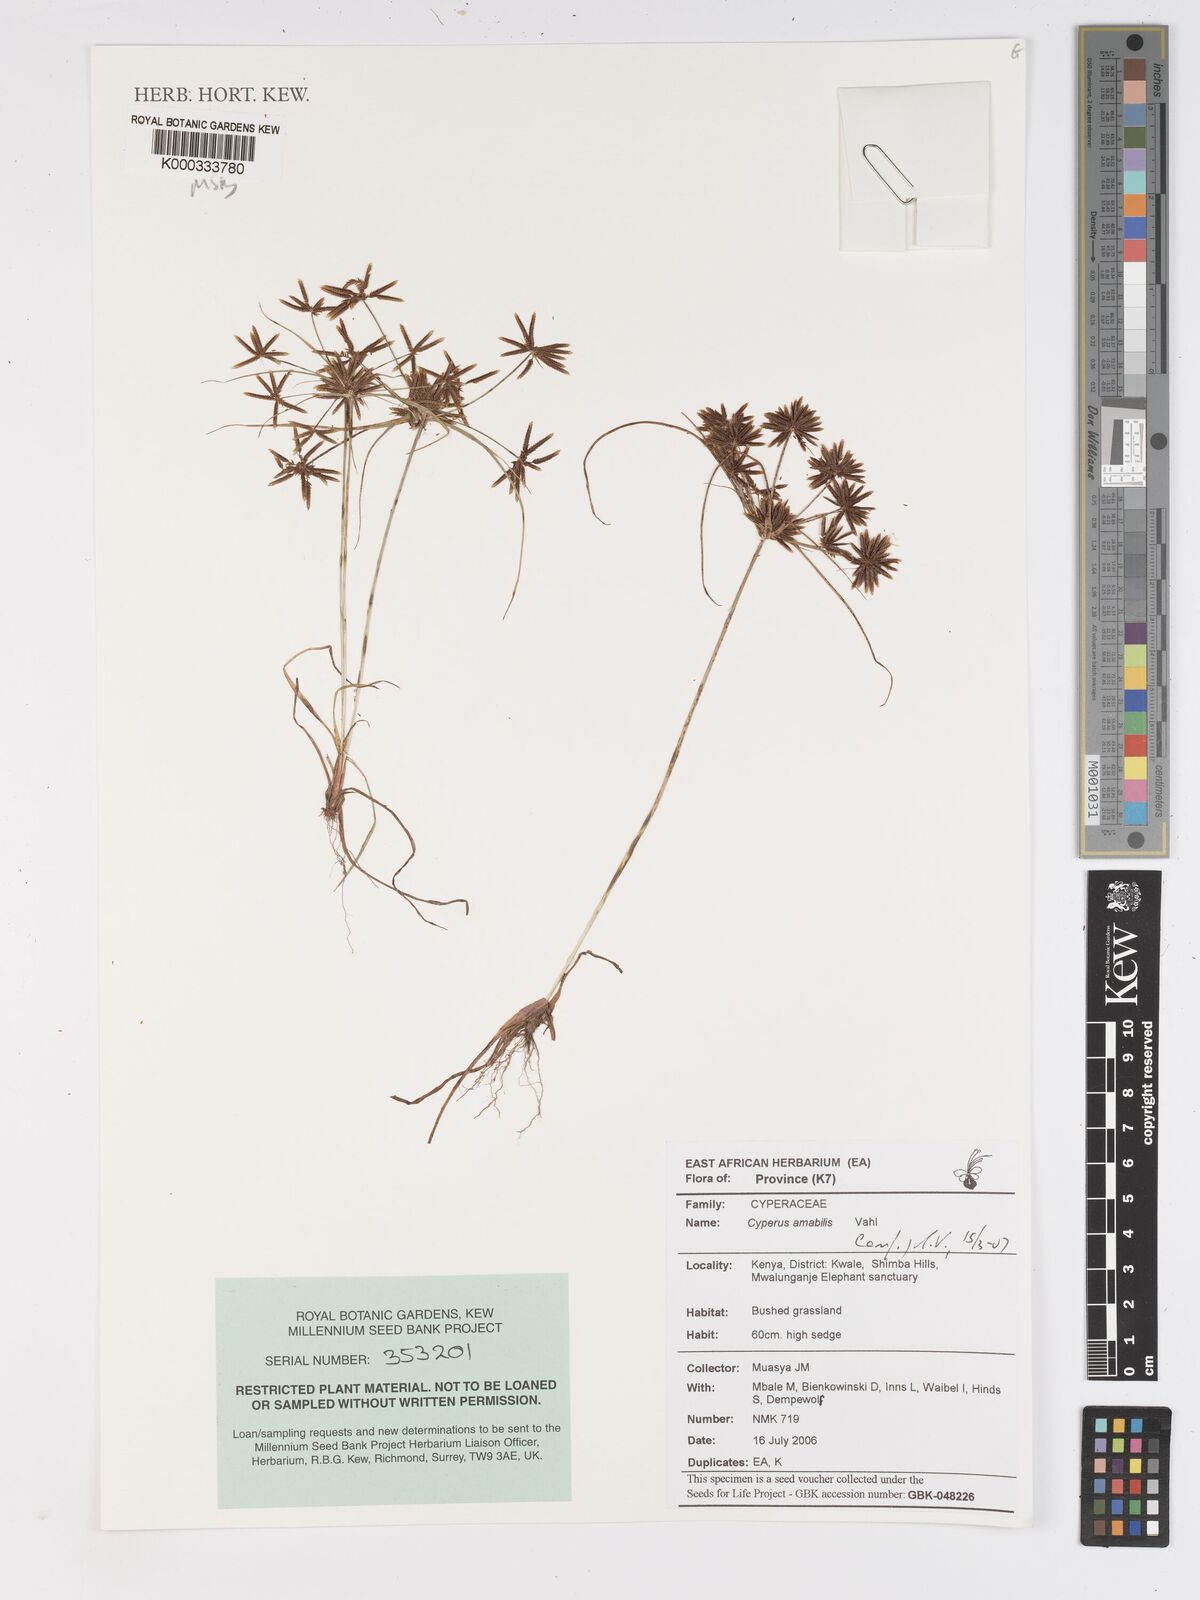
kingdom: Plantae
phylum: Tracheophyta
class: Liliopsida
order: Poales
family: Cyperaceae
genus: Cyperus
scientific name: Cyperus amabilis
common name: Foothill flat sedge
